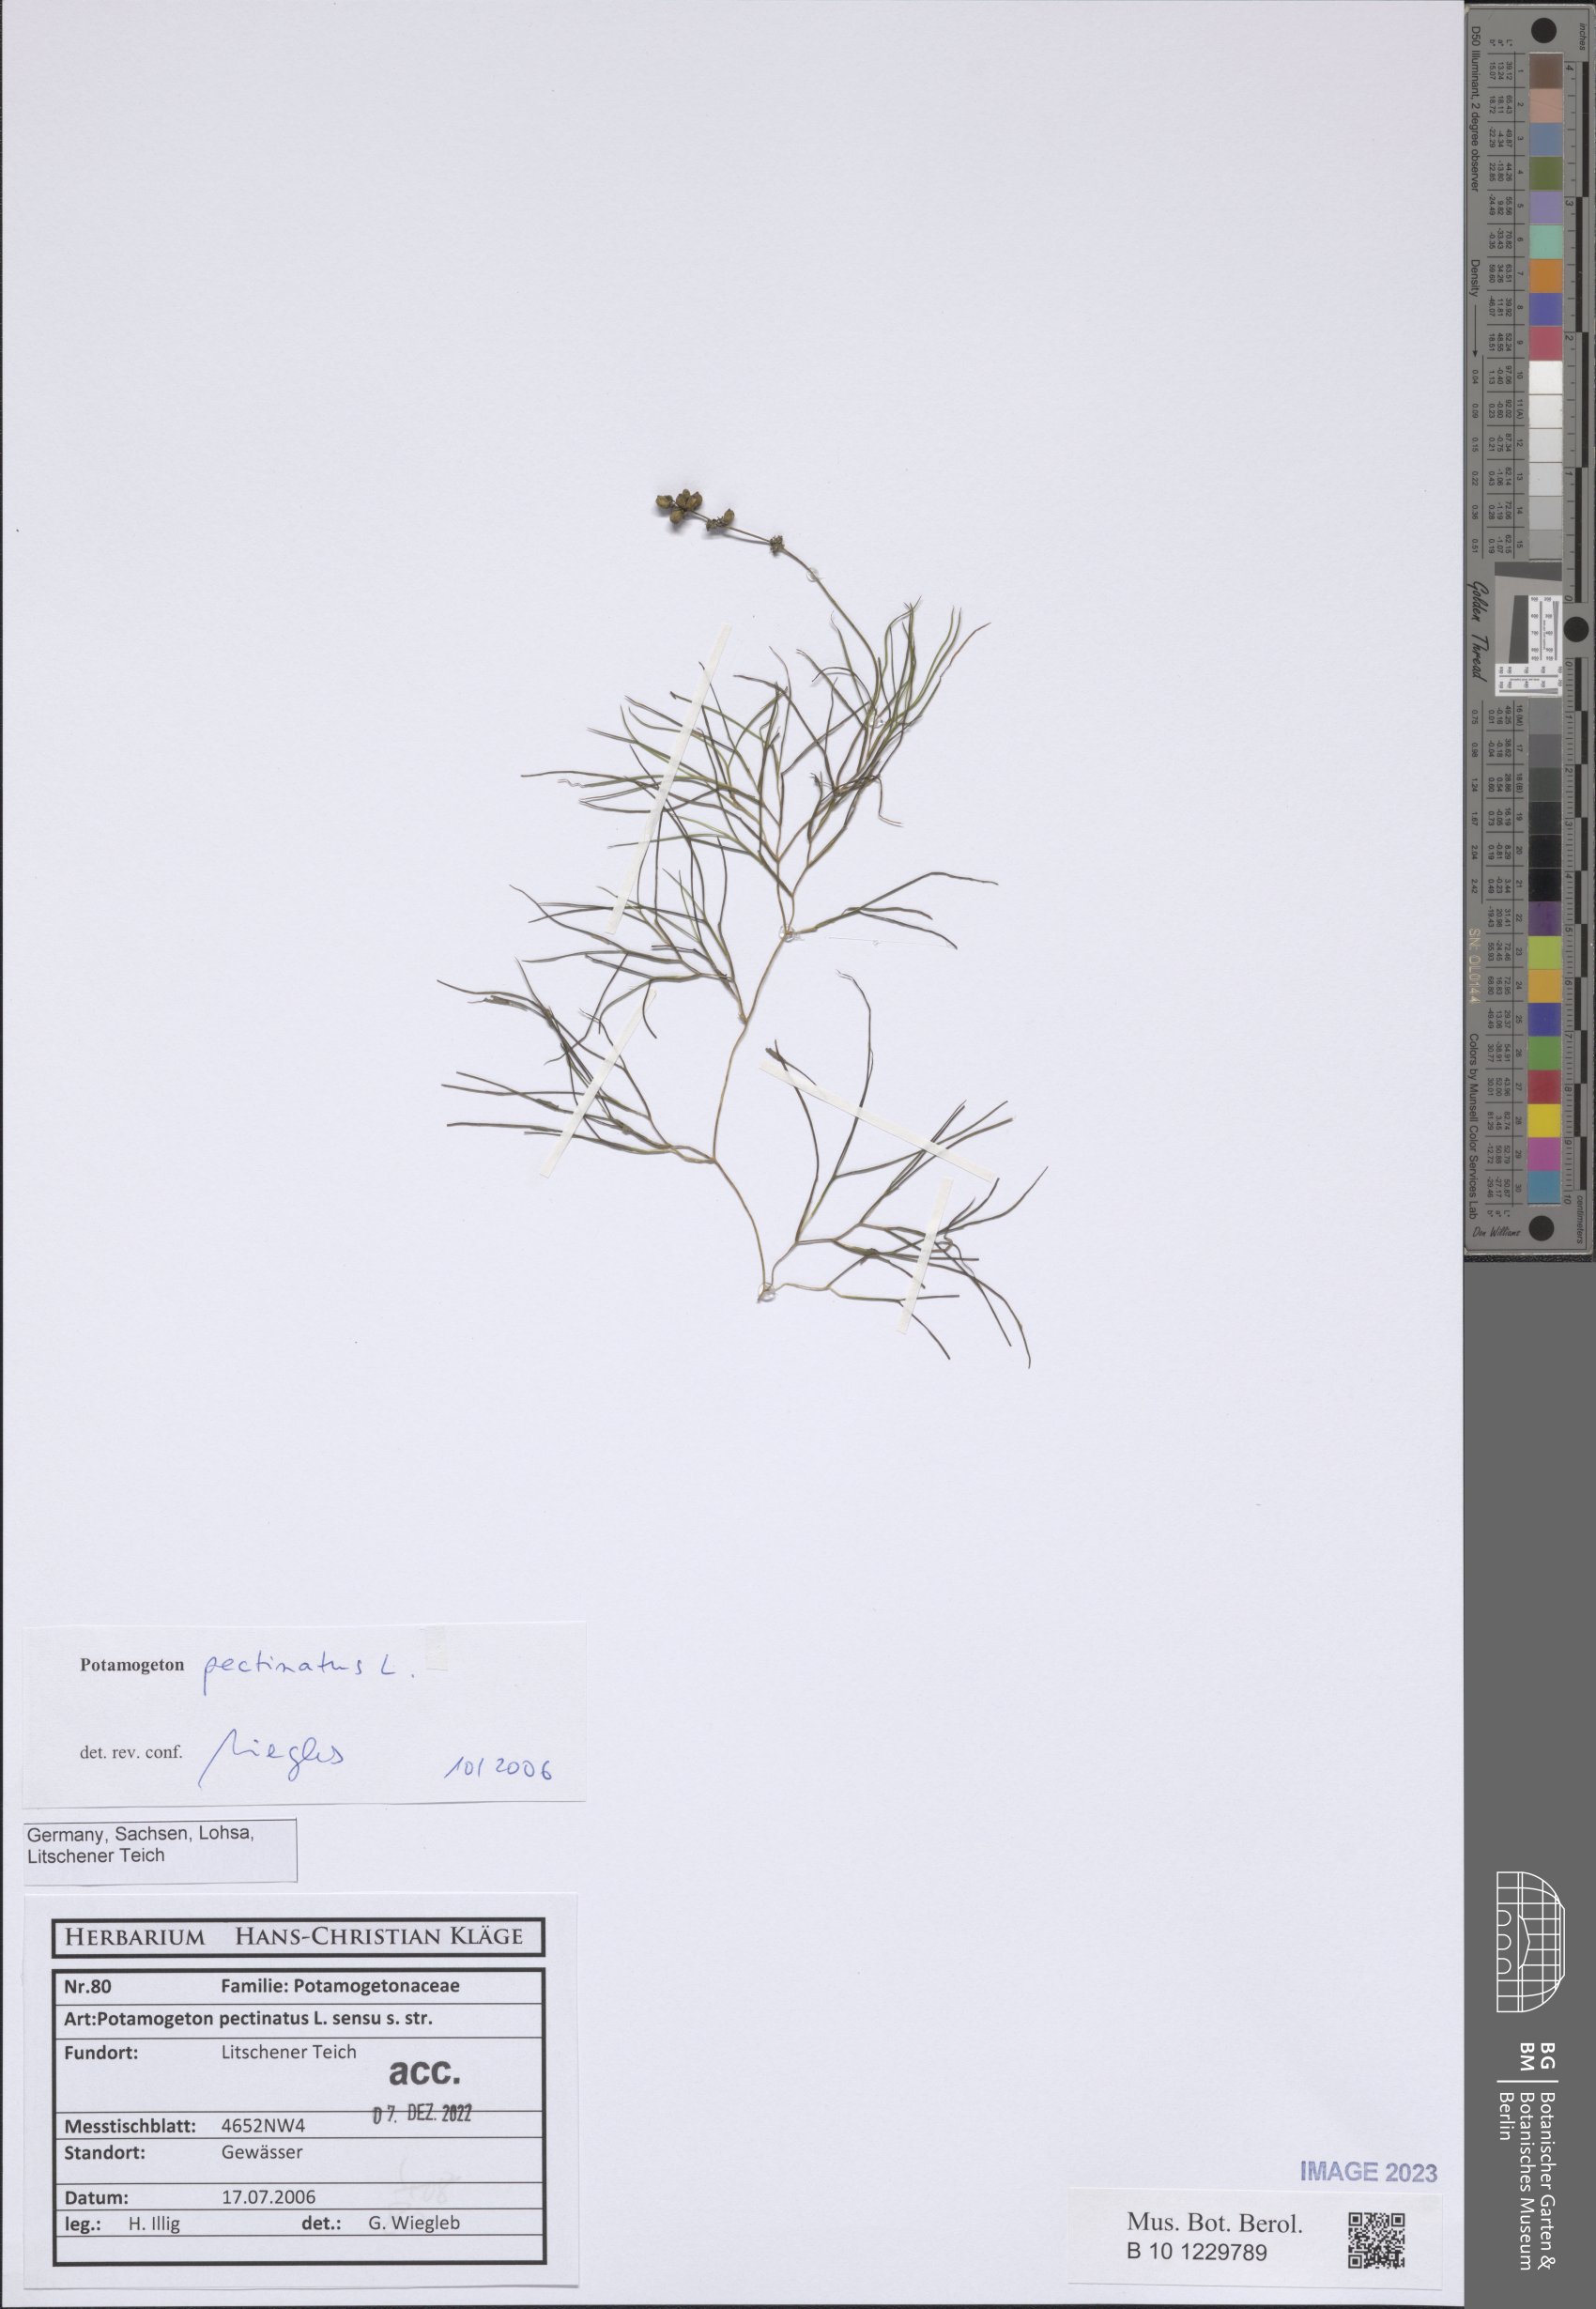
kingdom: Plantae
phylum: Tracheophyta
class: Liliopsida
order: Alismatales
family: Potamogetonaceae
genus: Stuckenia
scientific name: Stuckenia pectinata
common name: Sago pondweed
